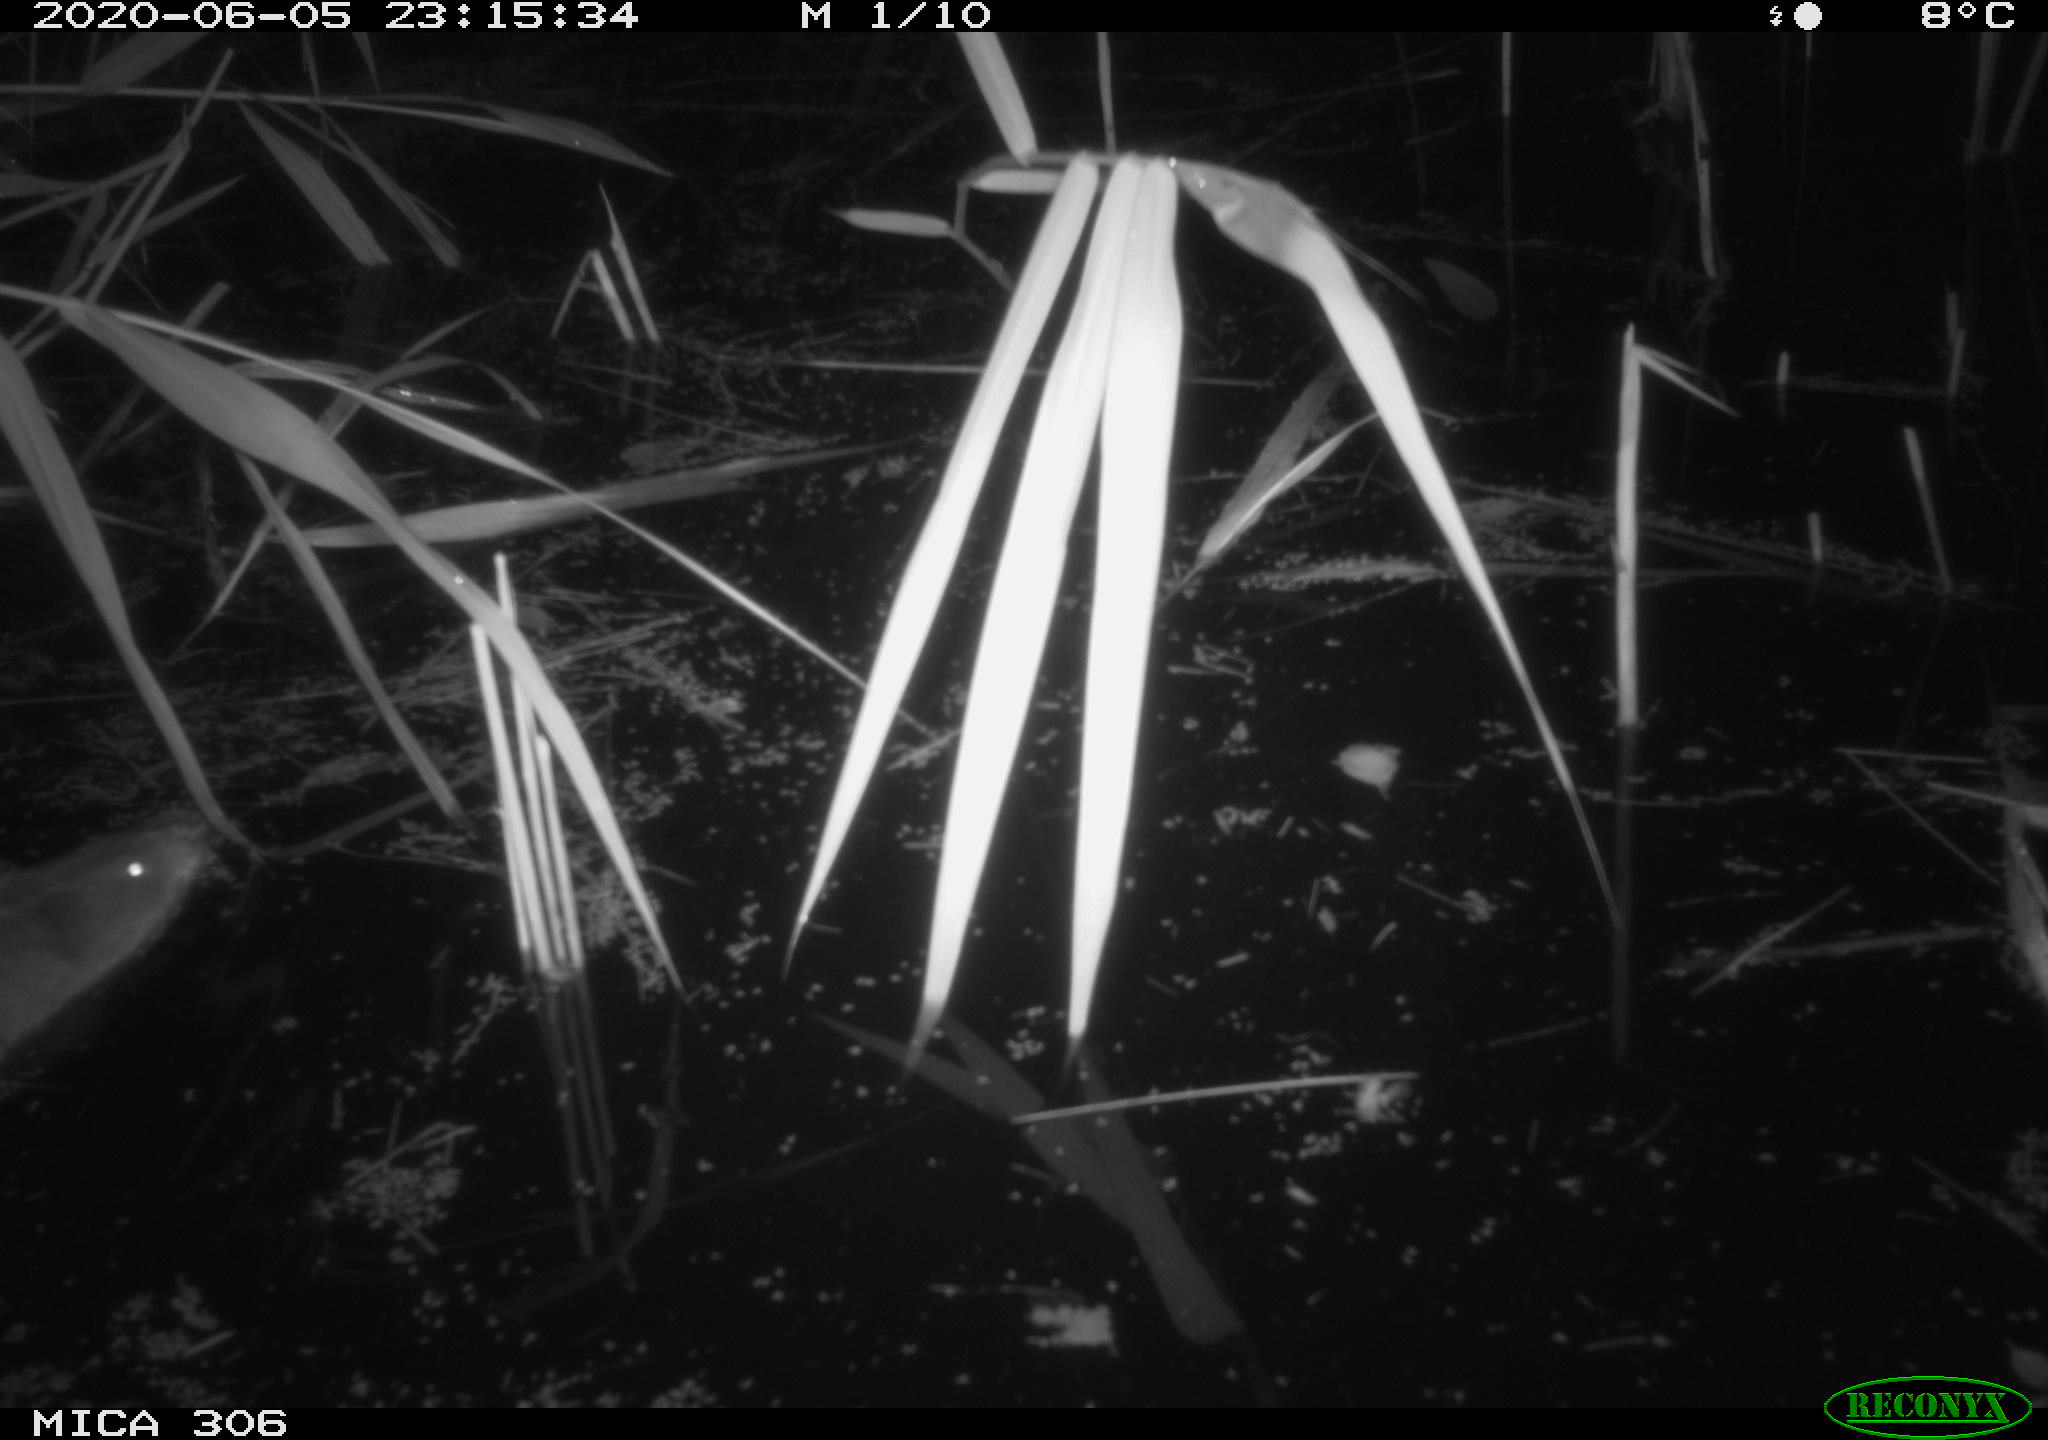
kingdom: Animalia
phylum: Chordata
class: Mammalia
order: Rodentia
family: Cricetidae
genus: Ondatra
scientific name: Ondatra zibethicus
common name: Muskrat
